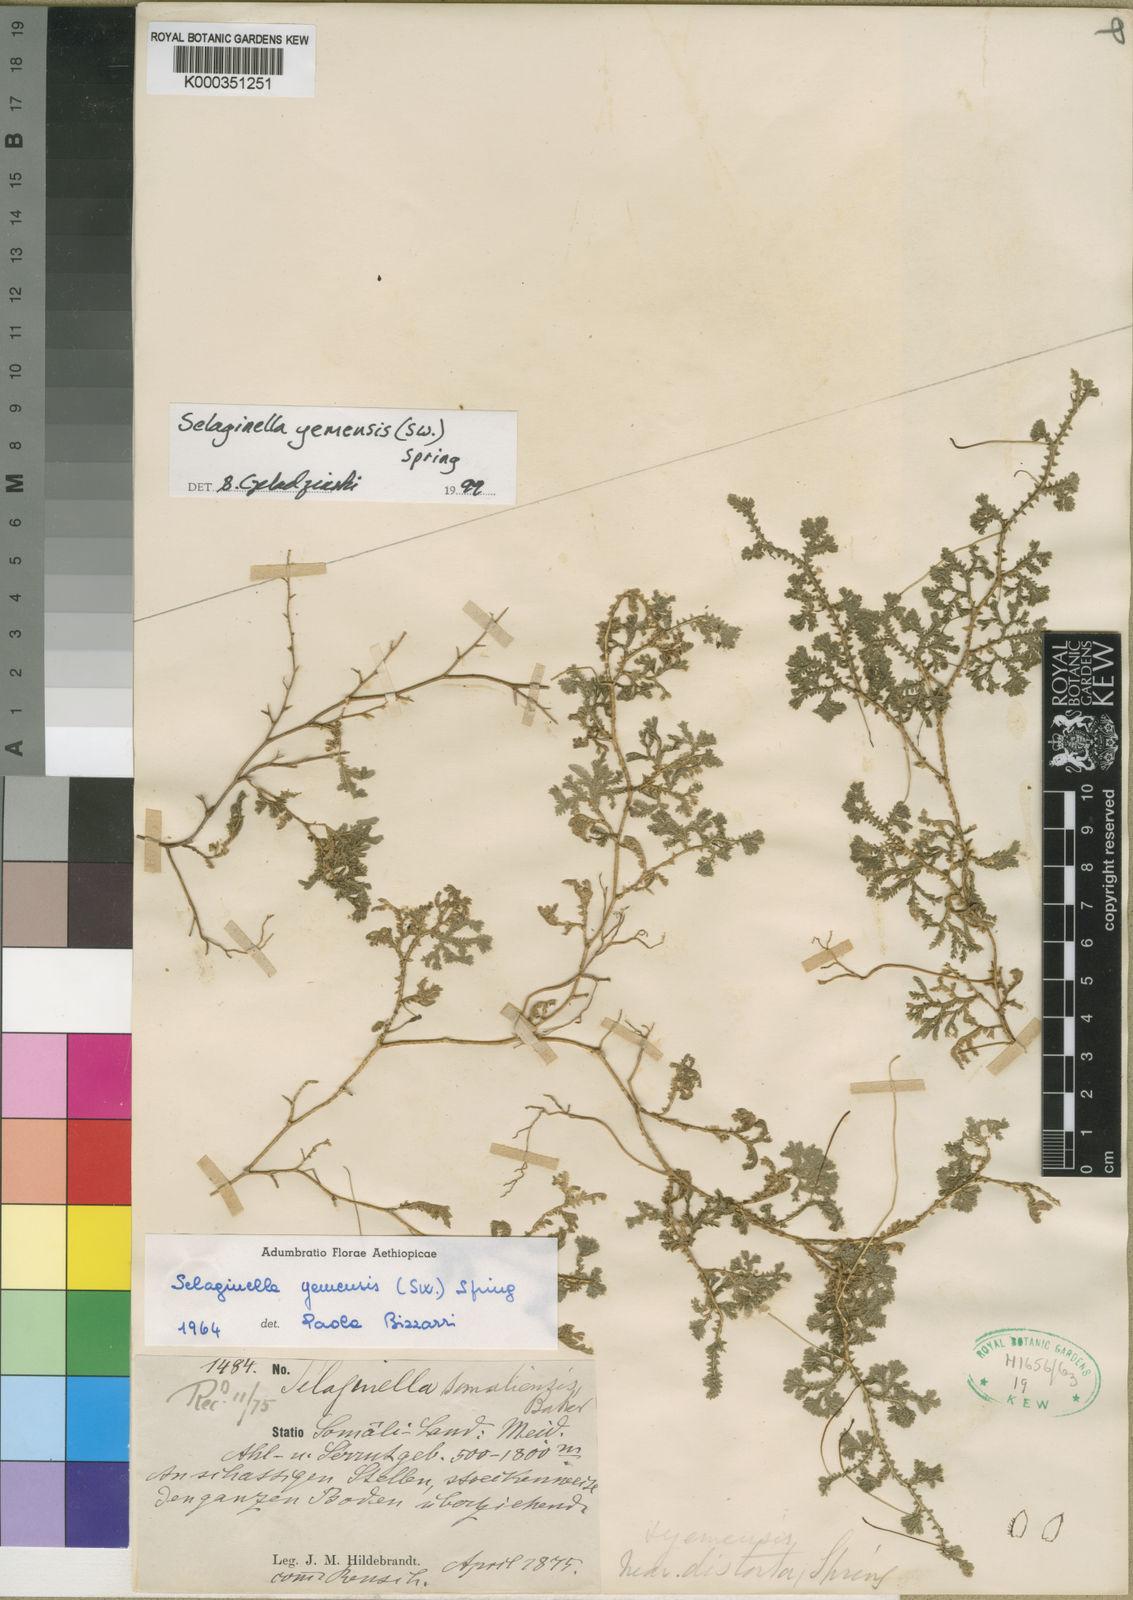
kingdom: Plantae
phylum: Tracheophyta
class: Lycopodiopsida
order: Selaginellales
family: Selaginellaceae
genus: Selaginella
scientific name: Selaginella yemensis
